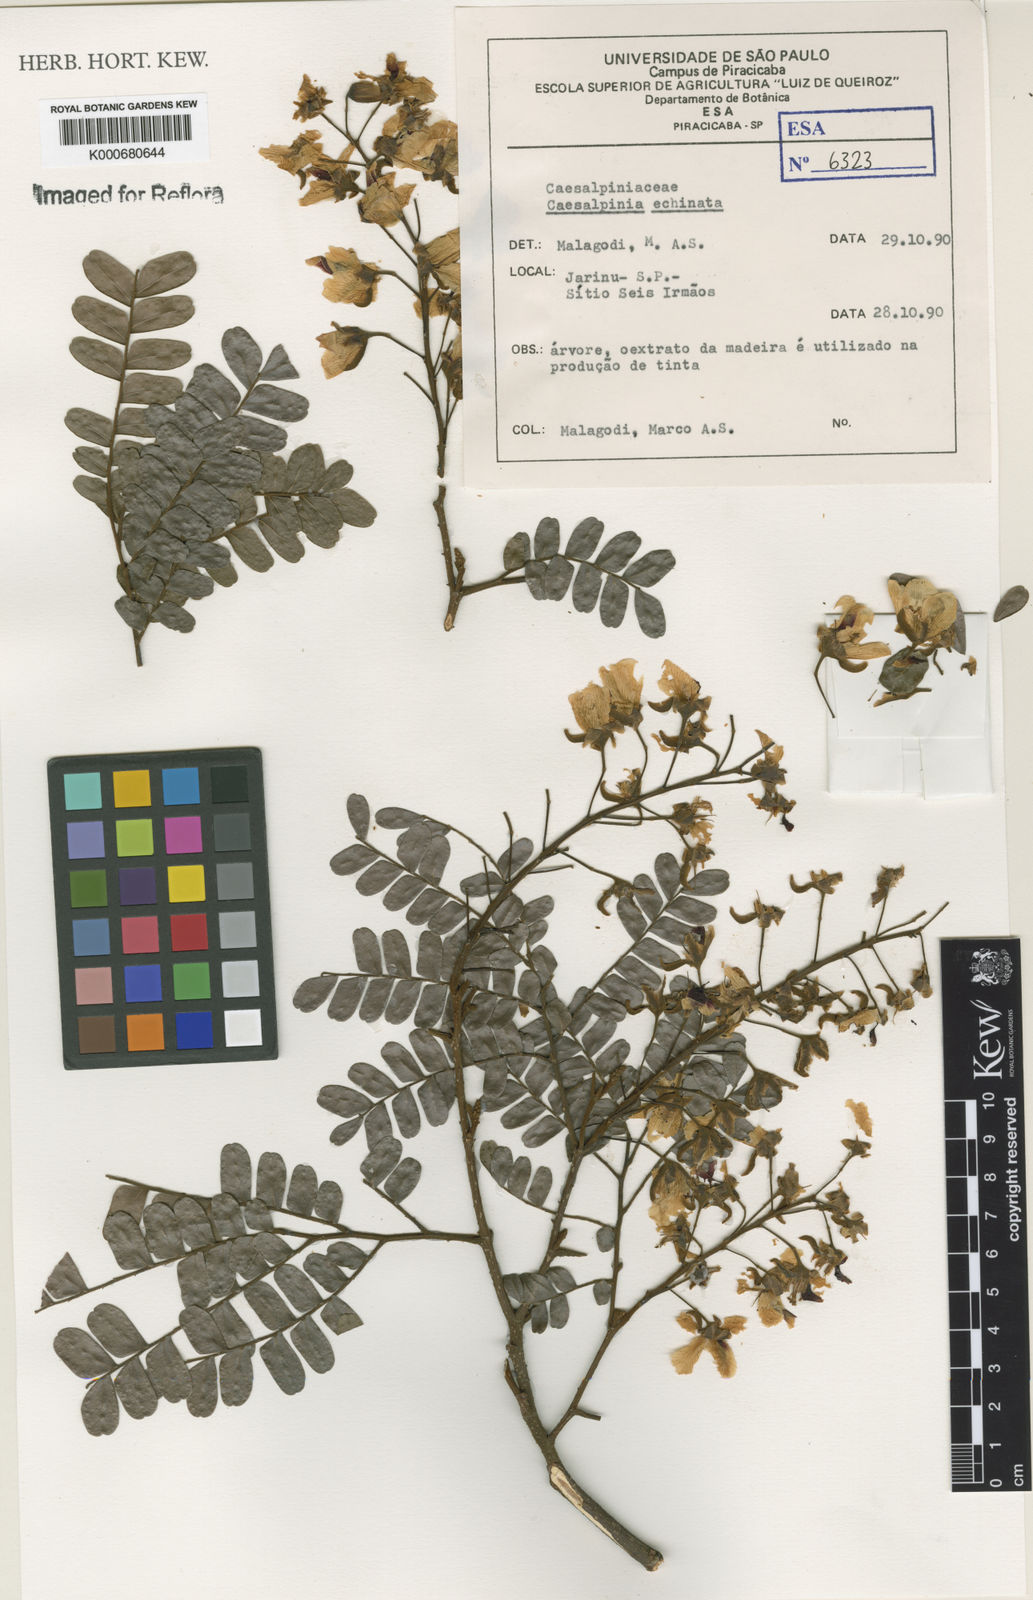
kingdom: Plantae
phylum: Tracheophyta
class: Magnoliopsida
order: Fabales
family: Fabaceae
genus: Paubrasilia
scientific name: Paubrasilia echinata
